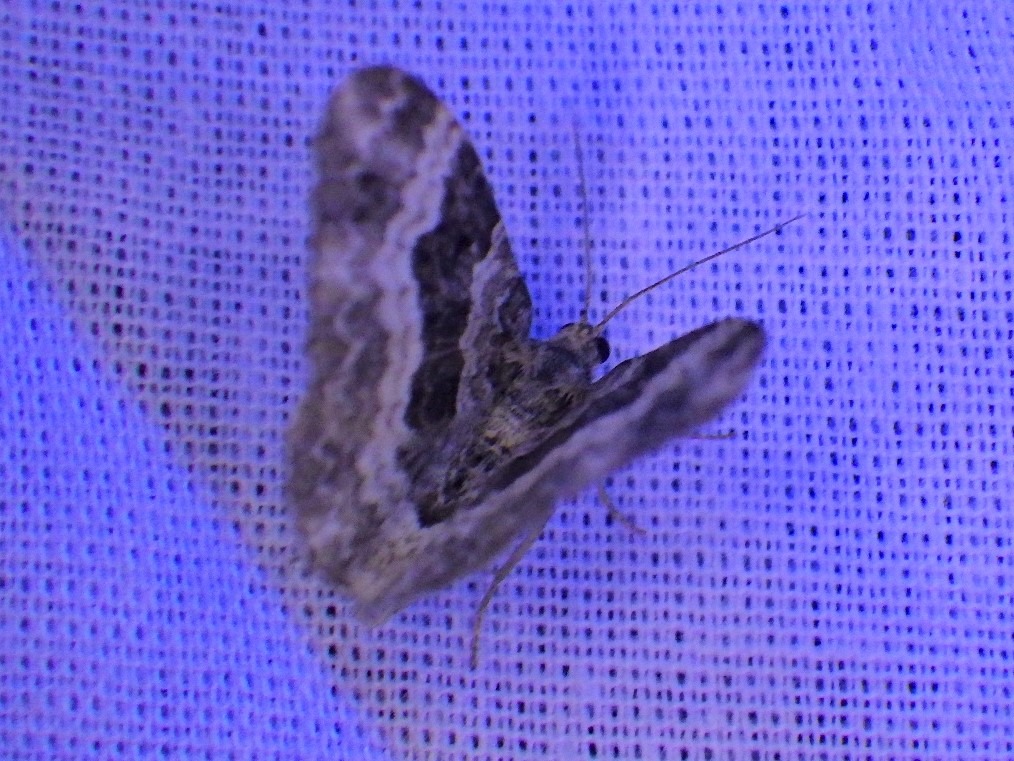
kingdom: Animalia
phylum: Arthropoda
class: Insecta
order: Lepidoptera
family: Geometridae
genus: Epirrhoe
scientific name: Epirrhoe alternata
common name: Almindelig bladmåler
